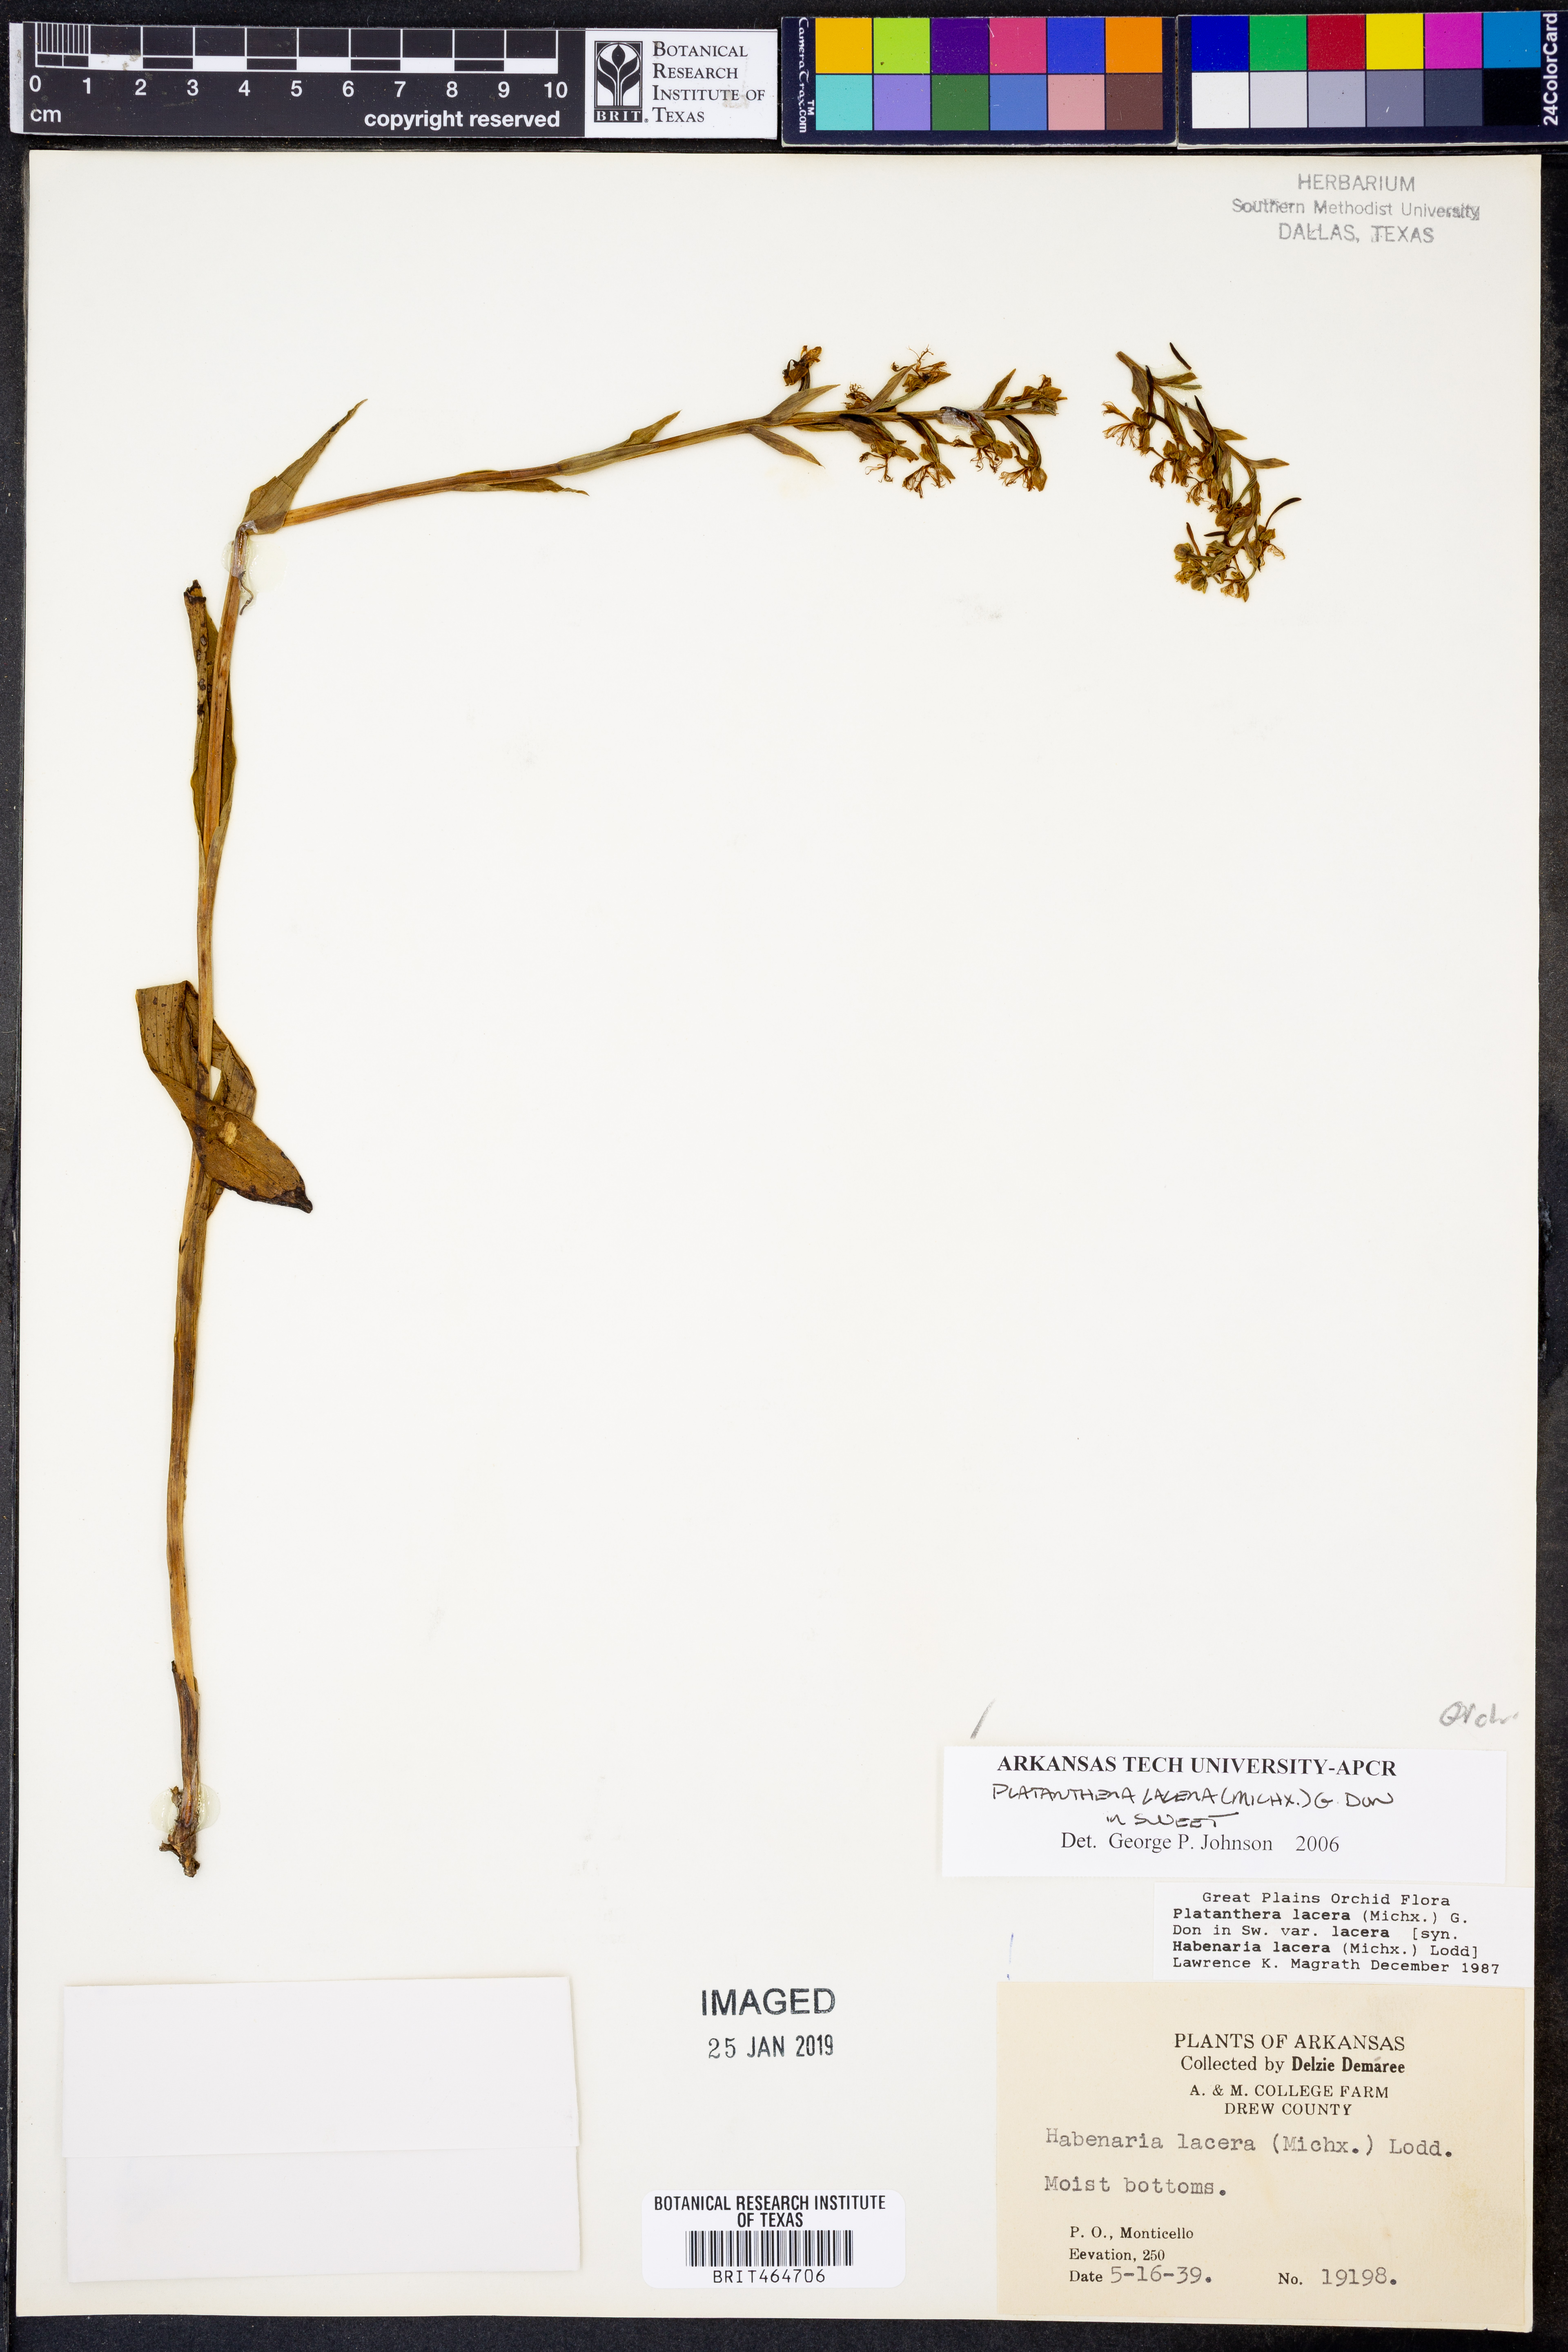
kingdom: Plantae
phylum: Tracheophyta
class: Liliopsida
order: Asparagales
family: Orchidaceae
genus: Platanthera
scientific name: Platanthera lacera
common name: Green fringed orchid
